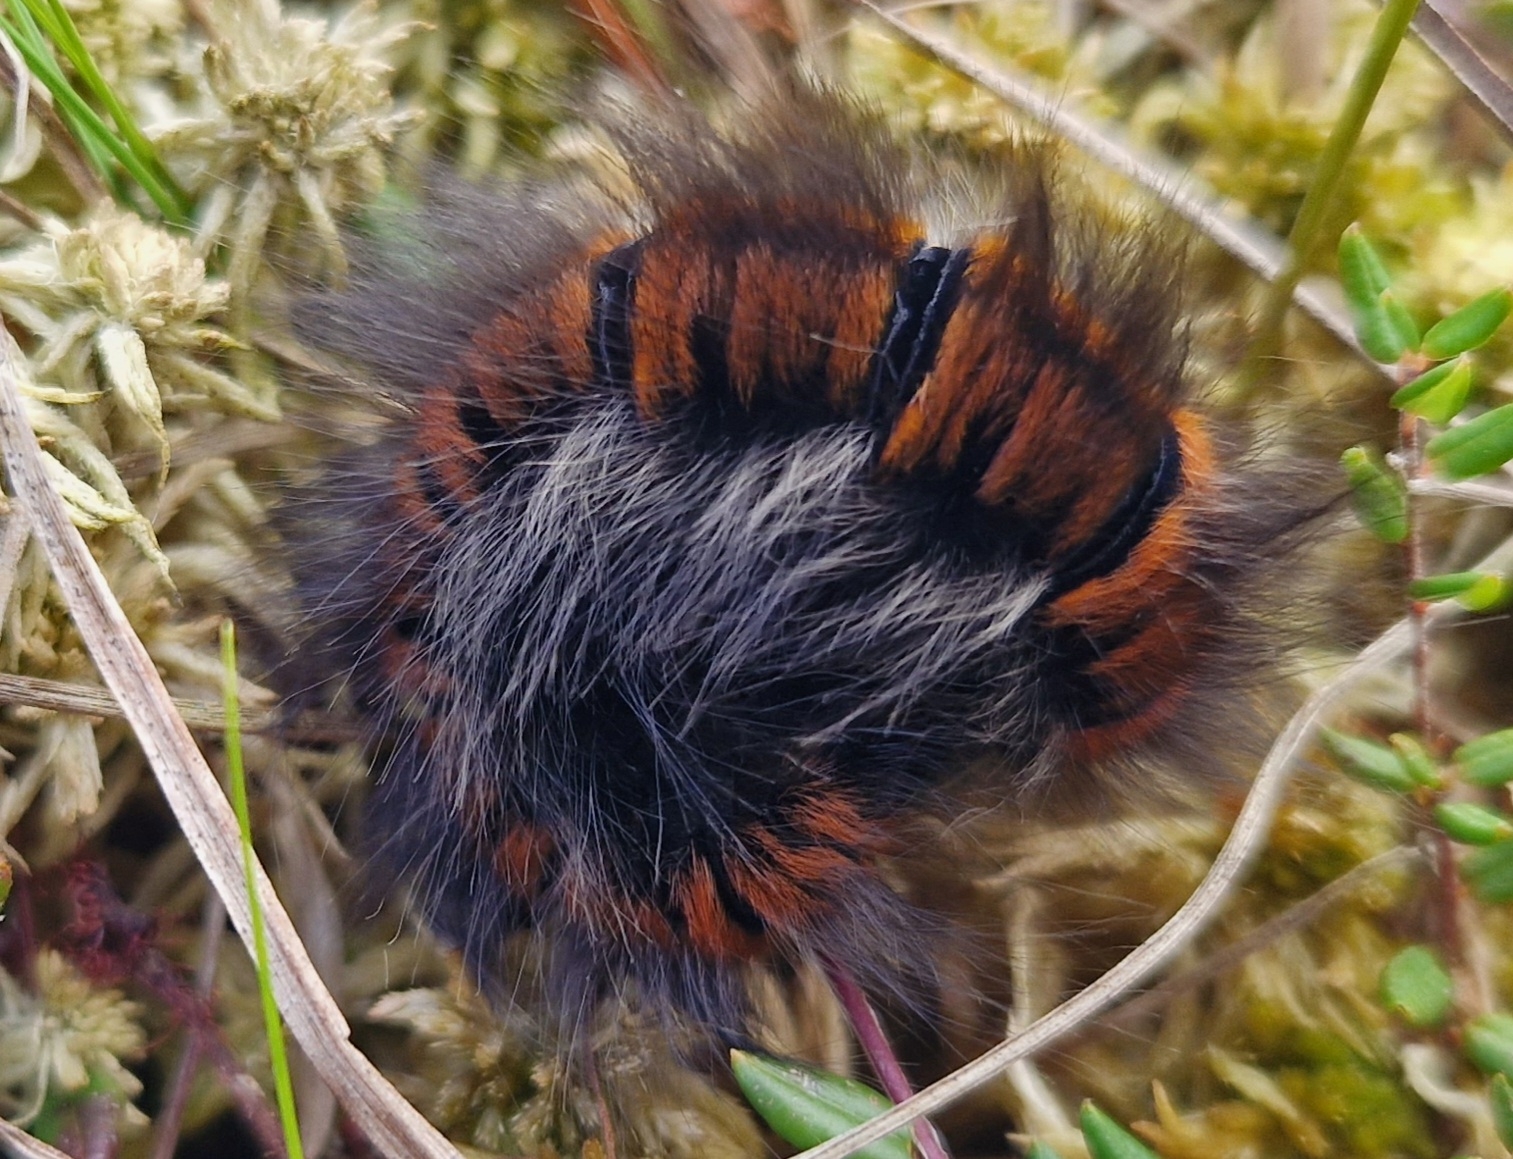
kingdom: Animalia
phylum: Arthropoda
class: Insecta
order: Lepidoptera
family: Lasiocampidae
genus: Macrothylacia
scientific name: Macrothylacia rubi
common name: Brombærspinder
